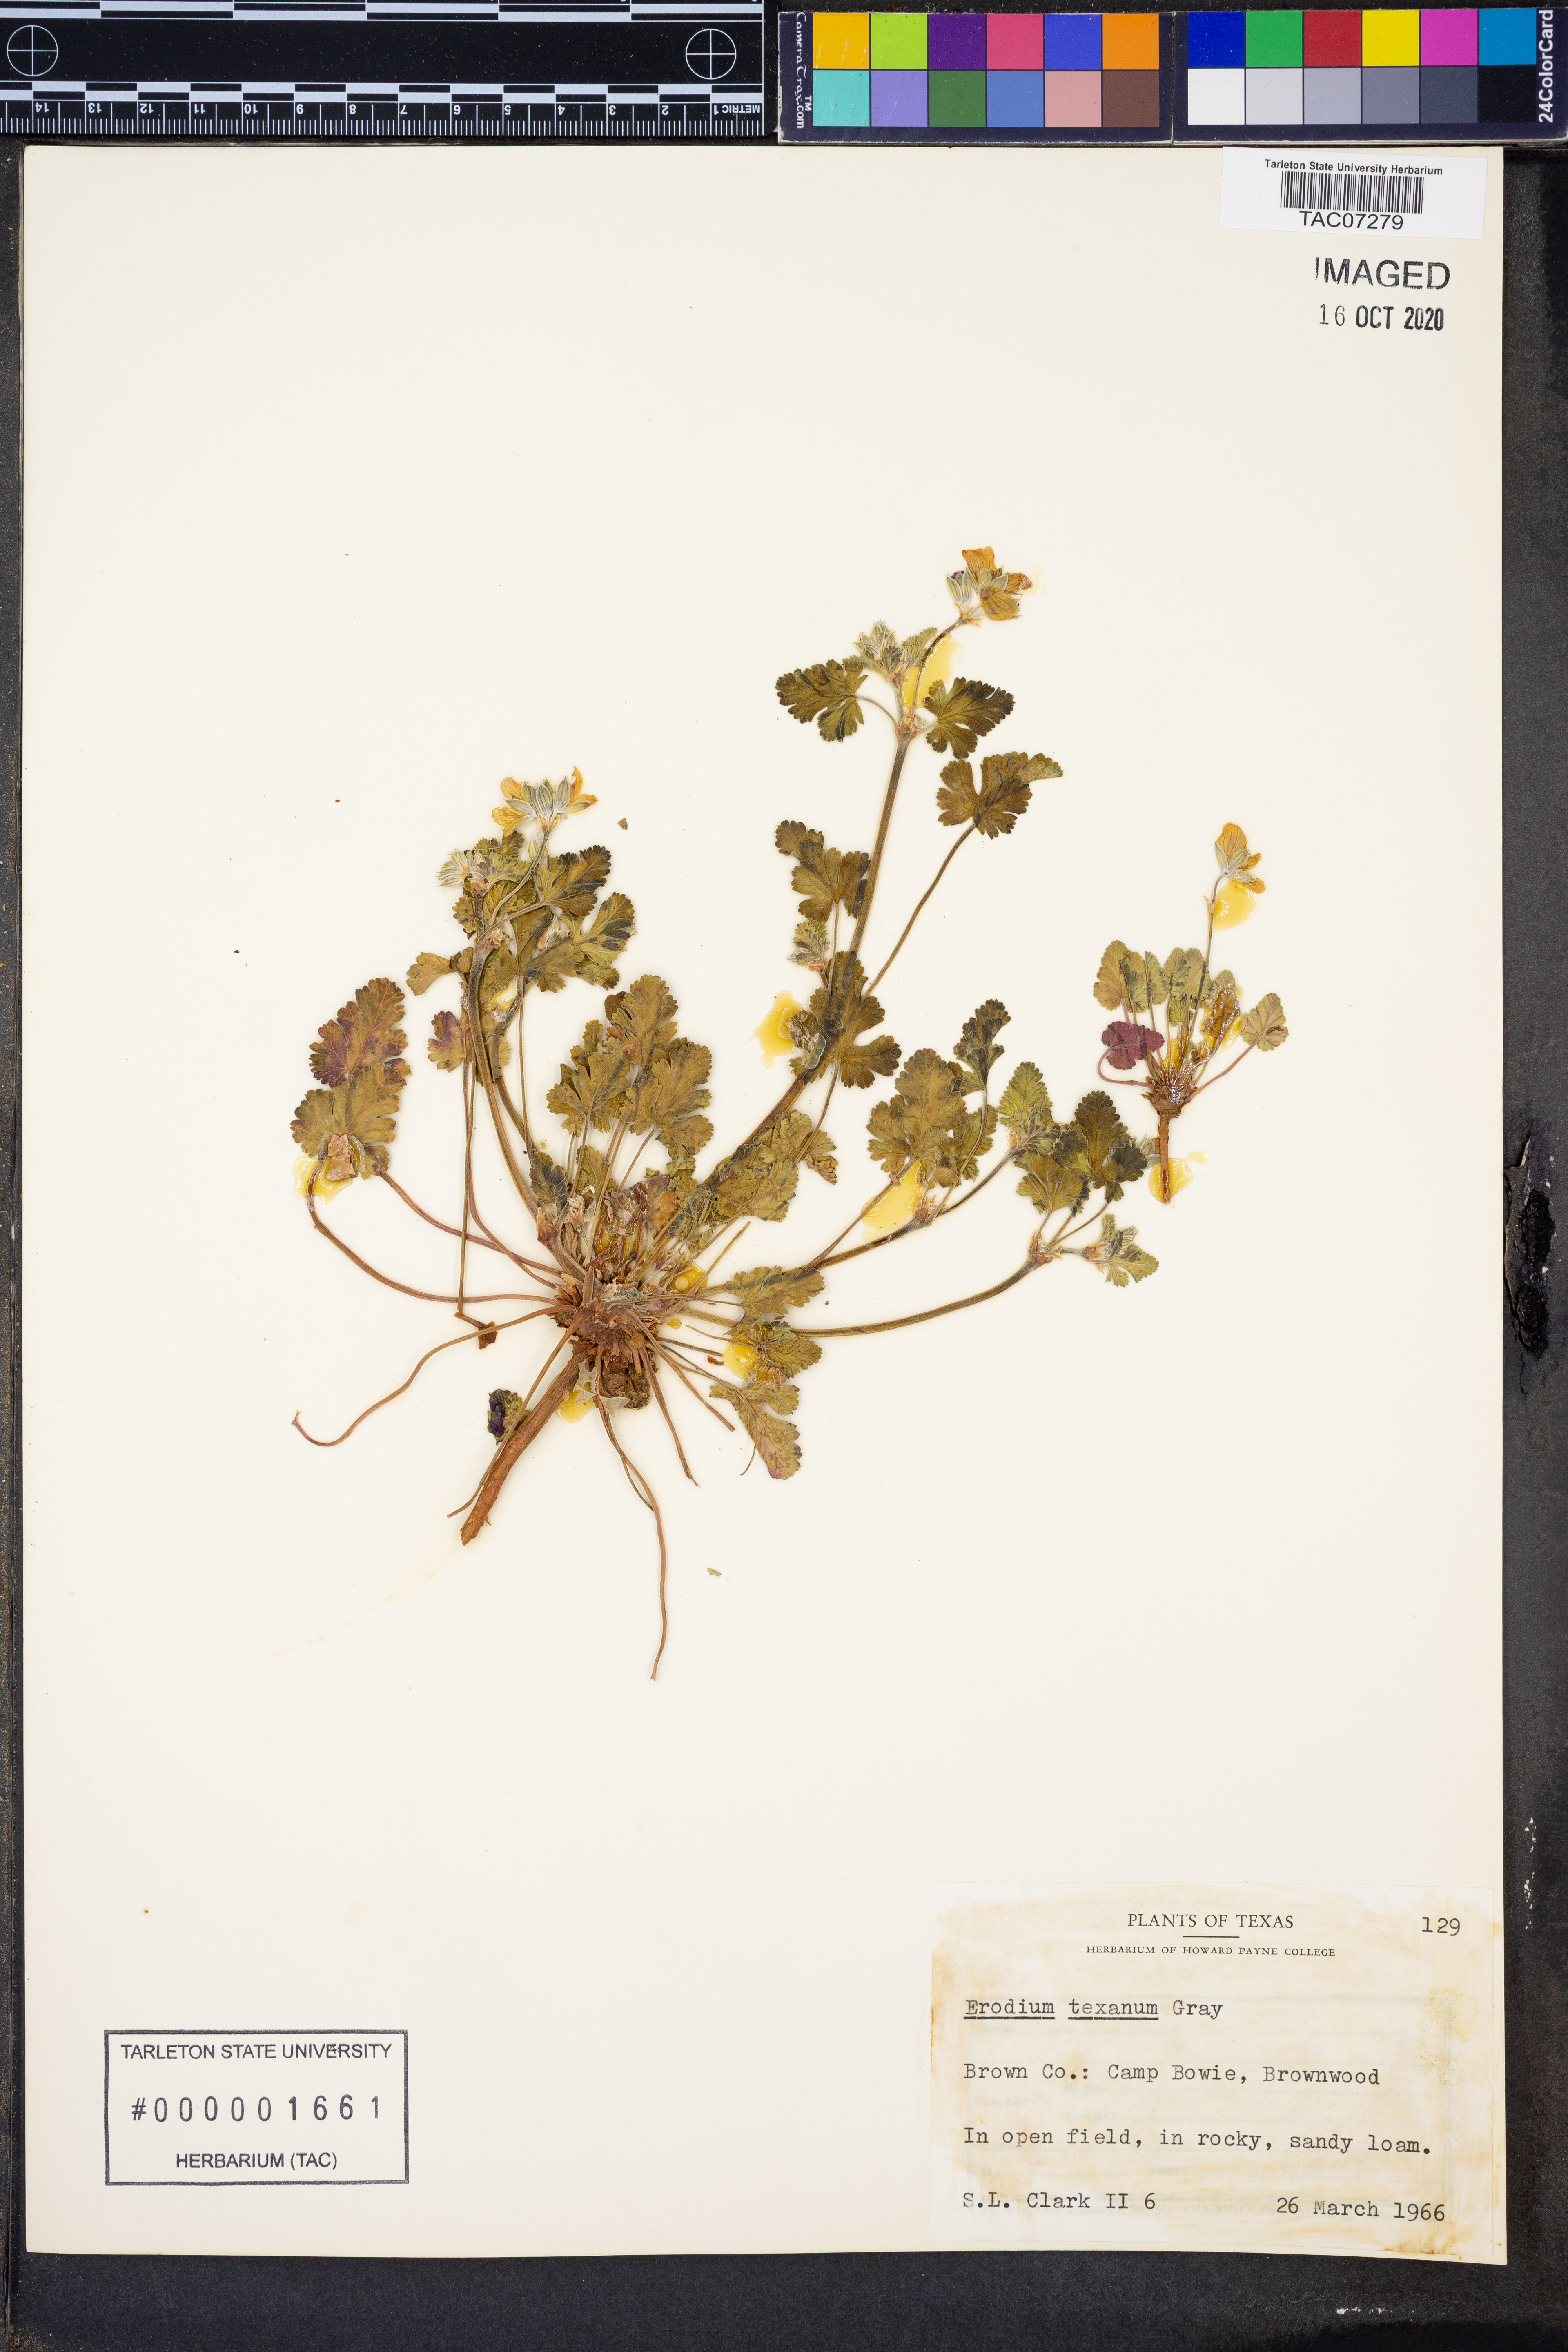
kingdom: Plantae
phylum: Tracheophyta
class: Magnoliopsida
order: Geraniales
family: Geraniaceae
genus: Erodium
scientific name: Erodium texanum
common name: Texas stork's-bill
